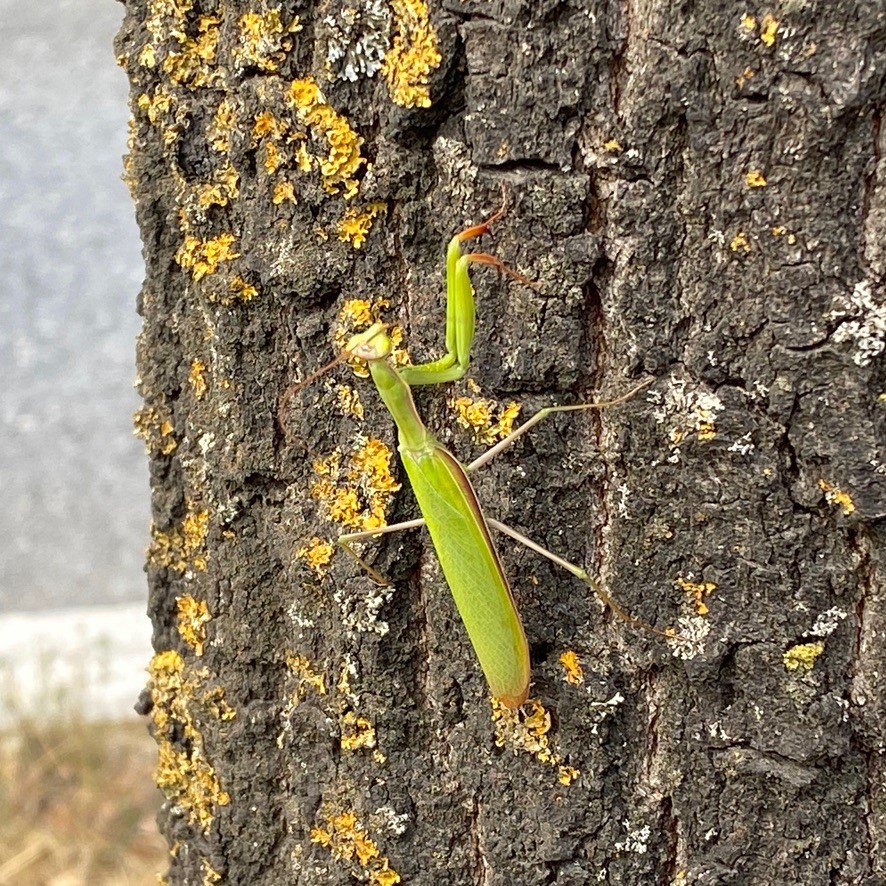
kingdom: Animalia
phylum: Arthropoda
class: Insecta
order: Mantodea
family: Mantidae
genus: Mantis
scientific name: Mantis religiosa
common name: Praying mantis
